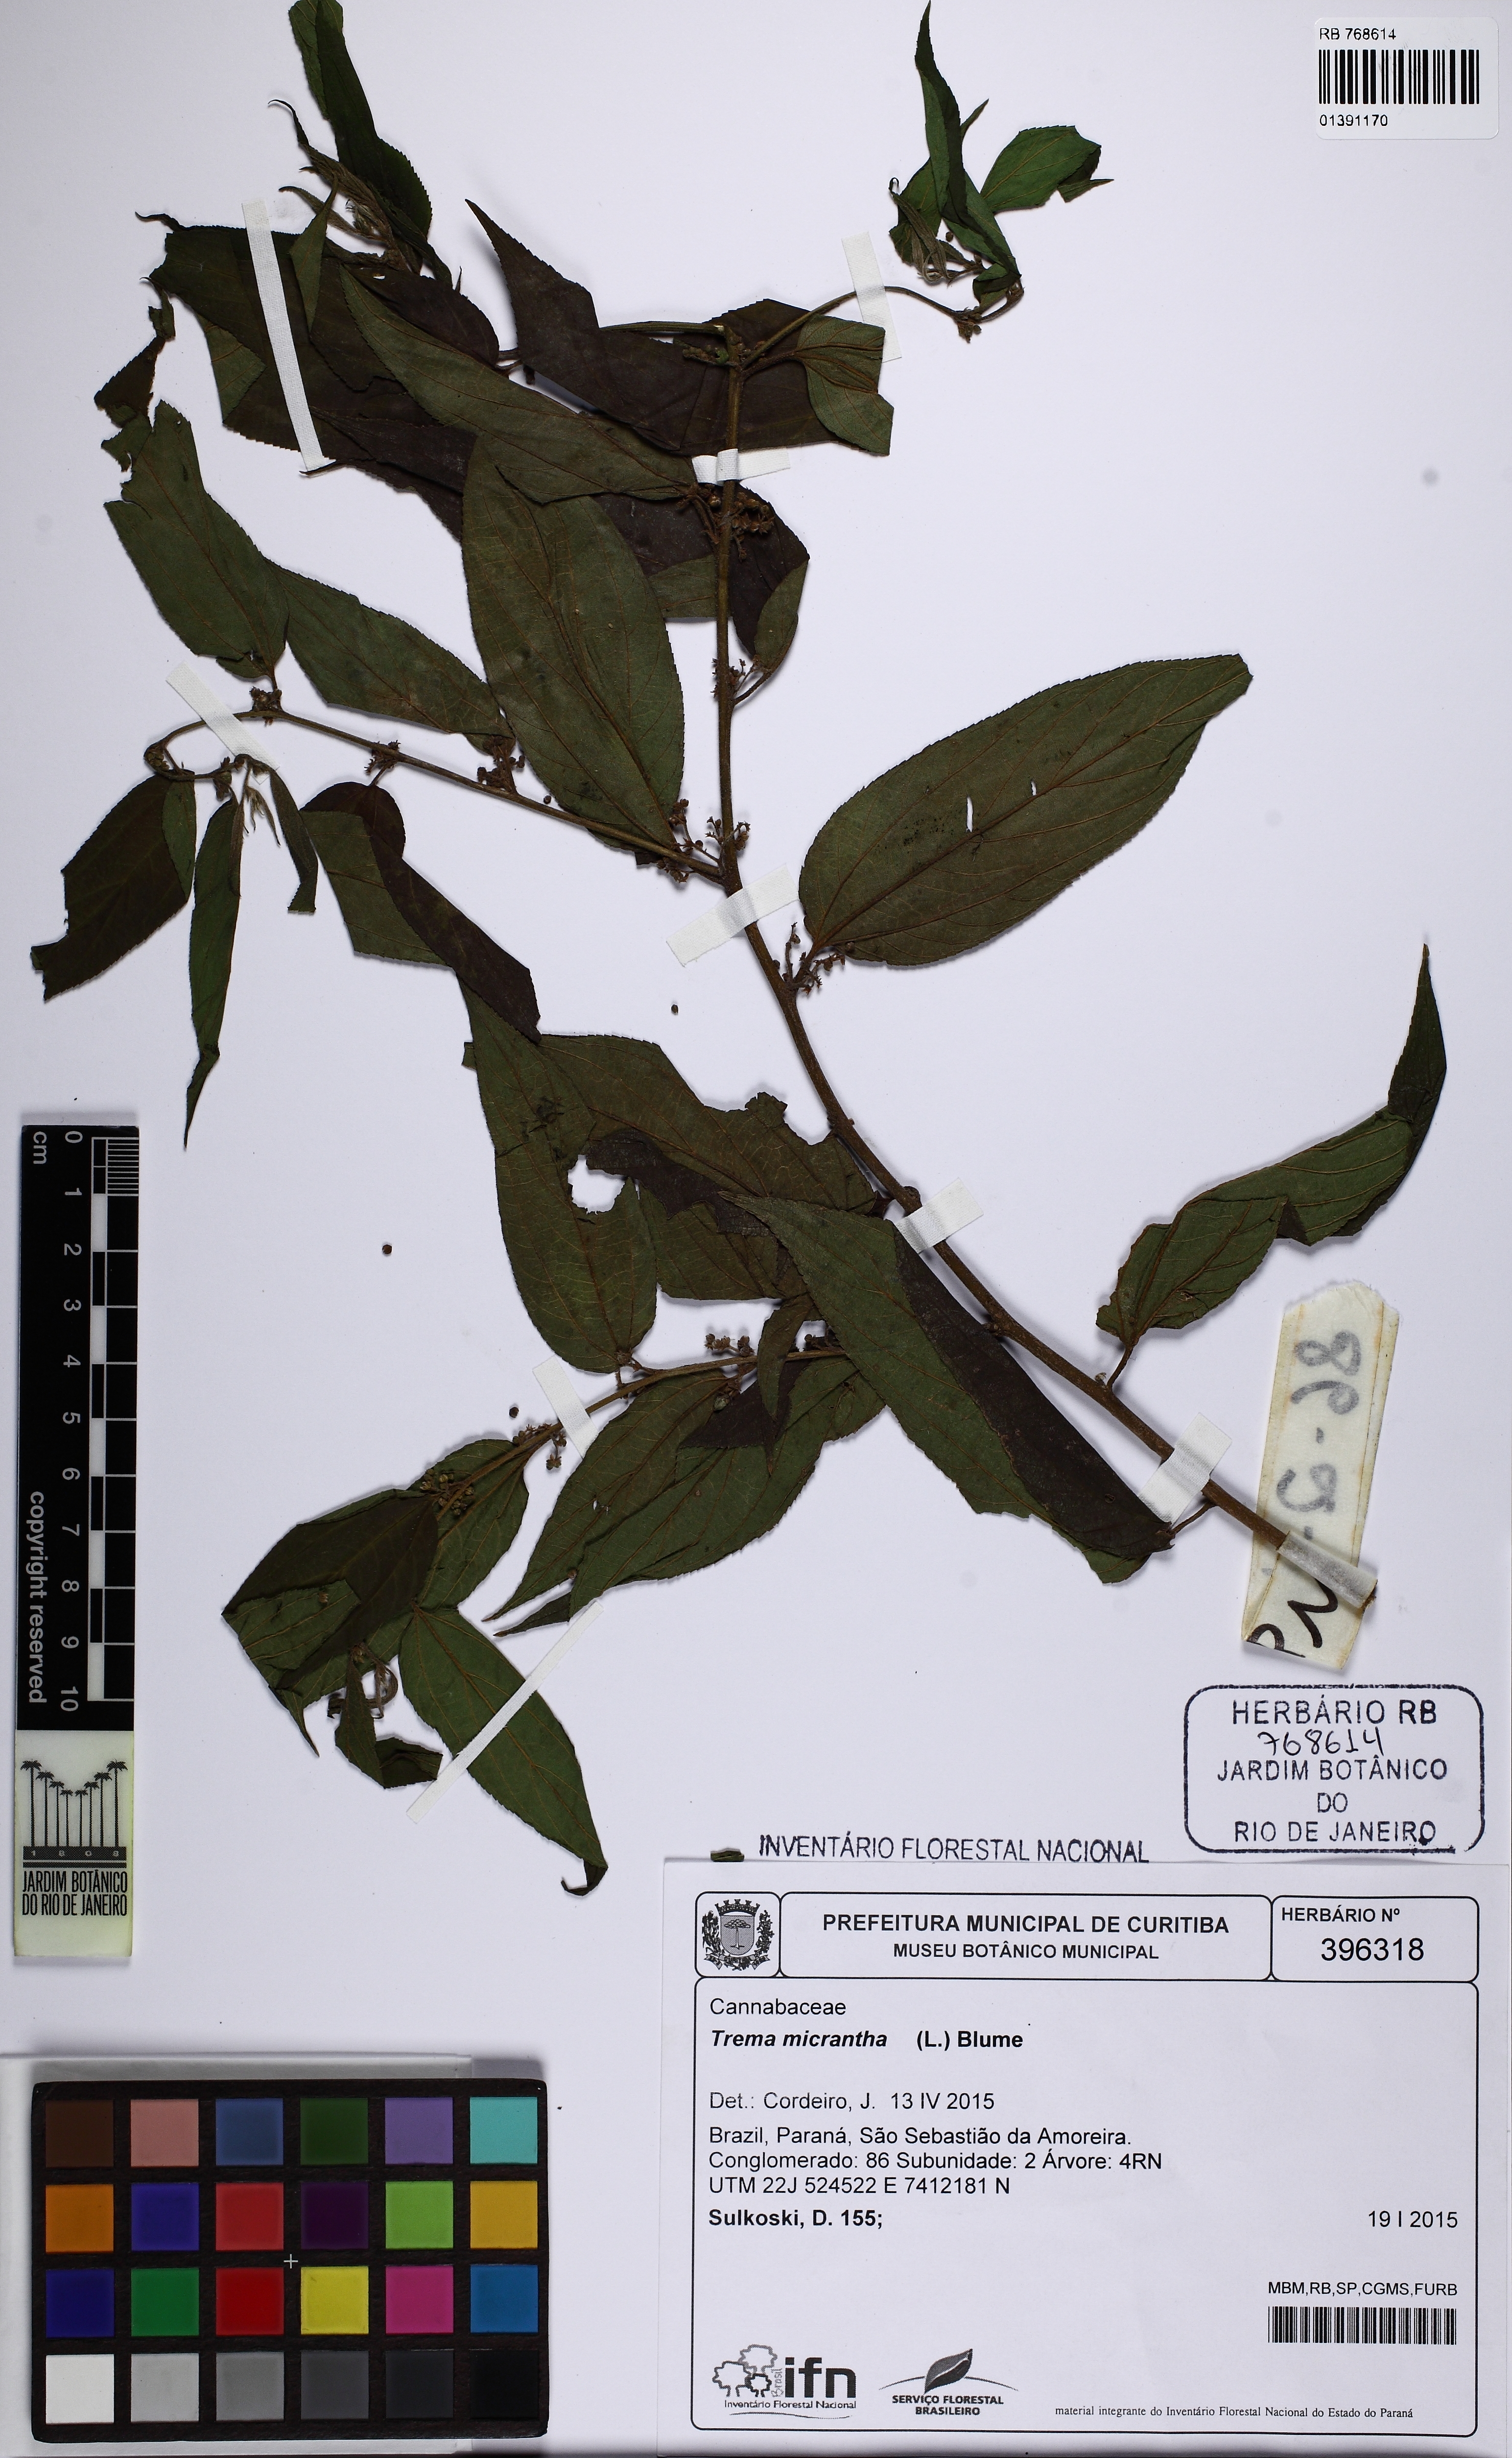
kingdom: Plantae
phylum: Tracheophyta
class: Magnoliopsida
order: Rosales
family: Cannabaceae
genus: Trema
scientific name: Trema micranthum
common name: Jamaican nettletree
